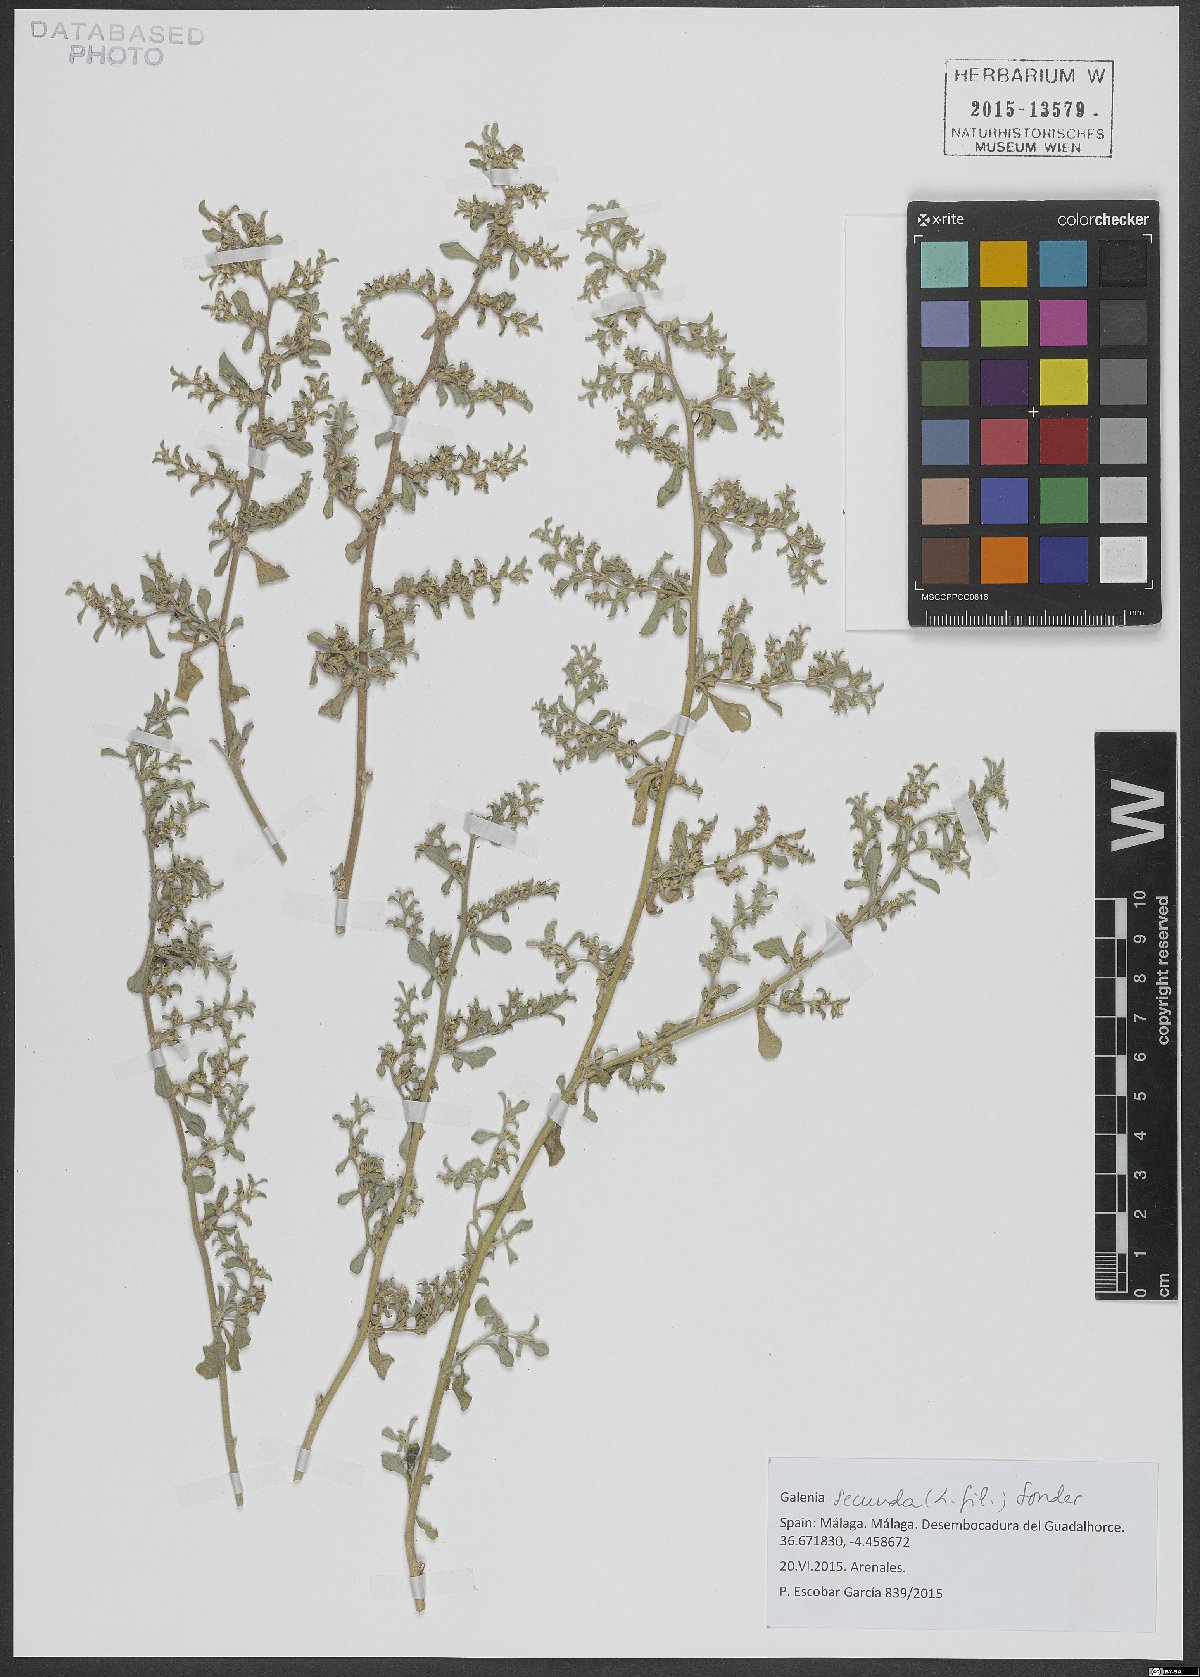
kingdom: Plantae
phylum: Tracheophyta
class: Magnoliopsida
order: Caryophyllales
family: Aizoaceae
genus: Aizoon
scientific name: Aizoon secundum
